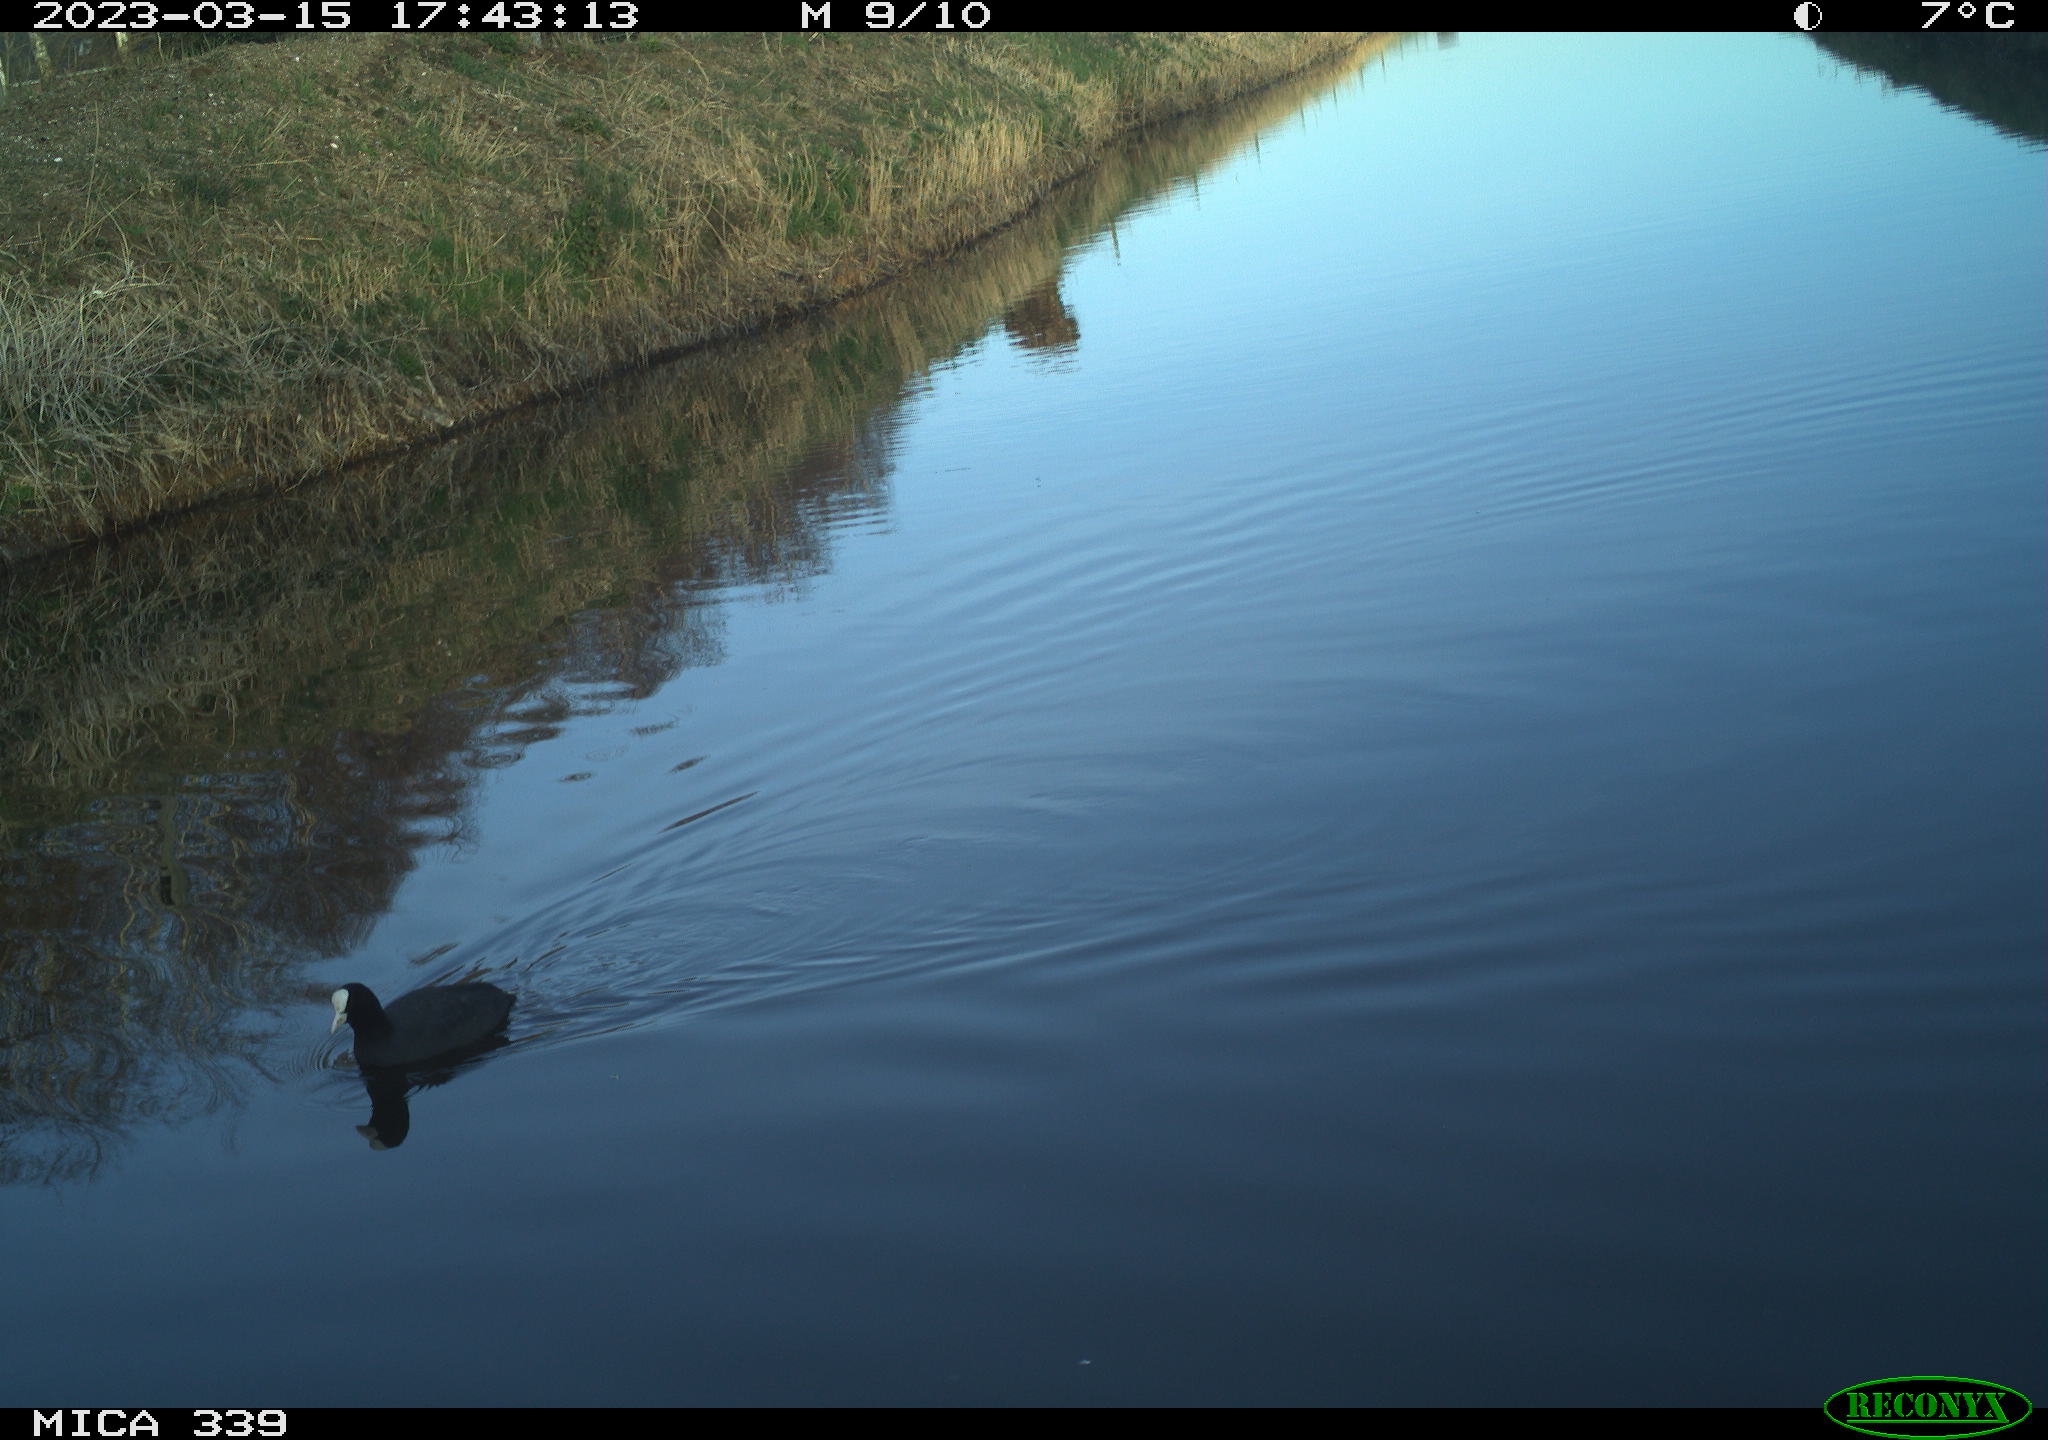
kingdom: Animalia
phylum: Chordata
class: Aves
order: Gruiformes
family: Rallidae
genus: Fulica
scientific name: Fulica atra
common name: Eurasian coot
